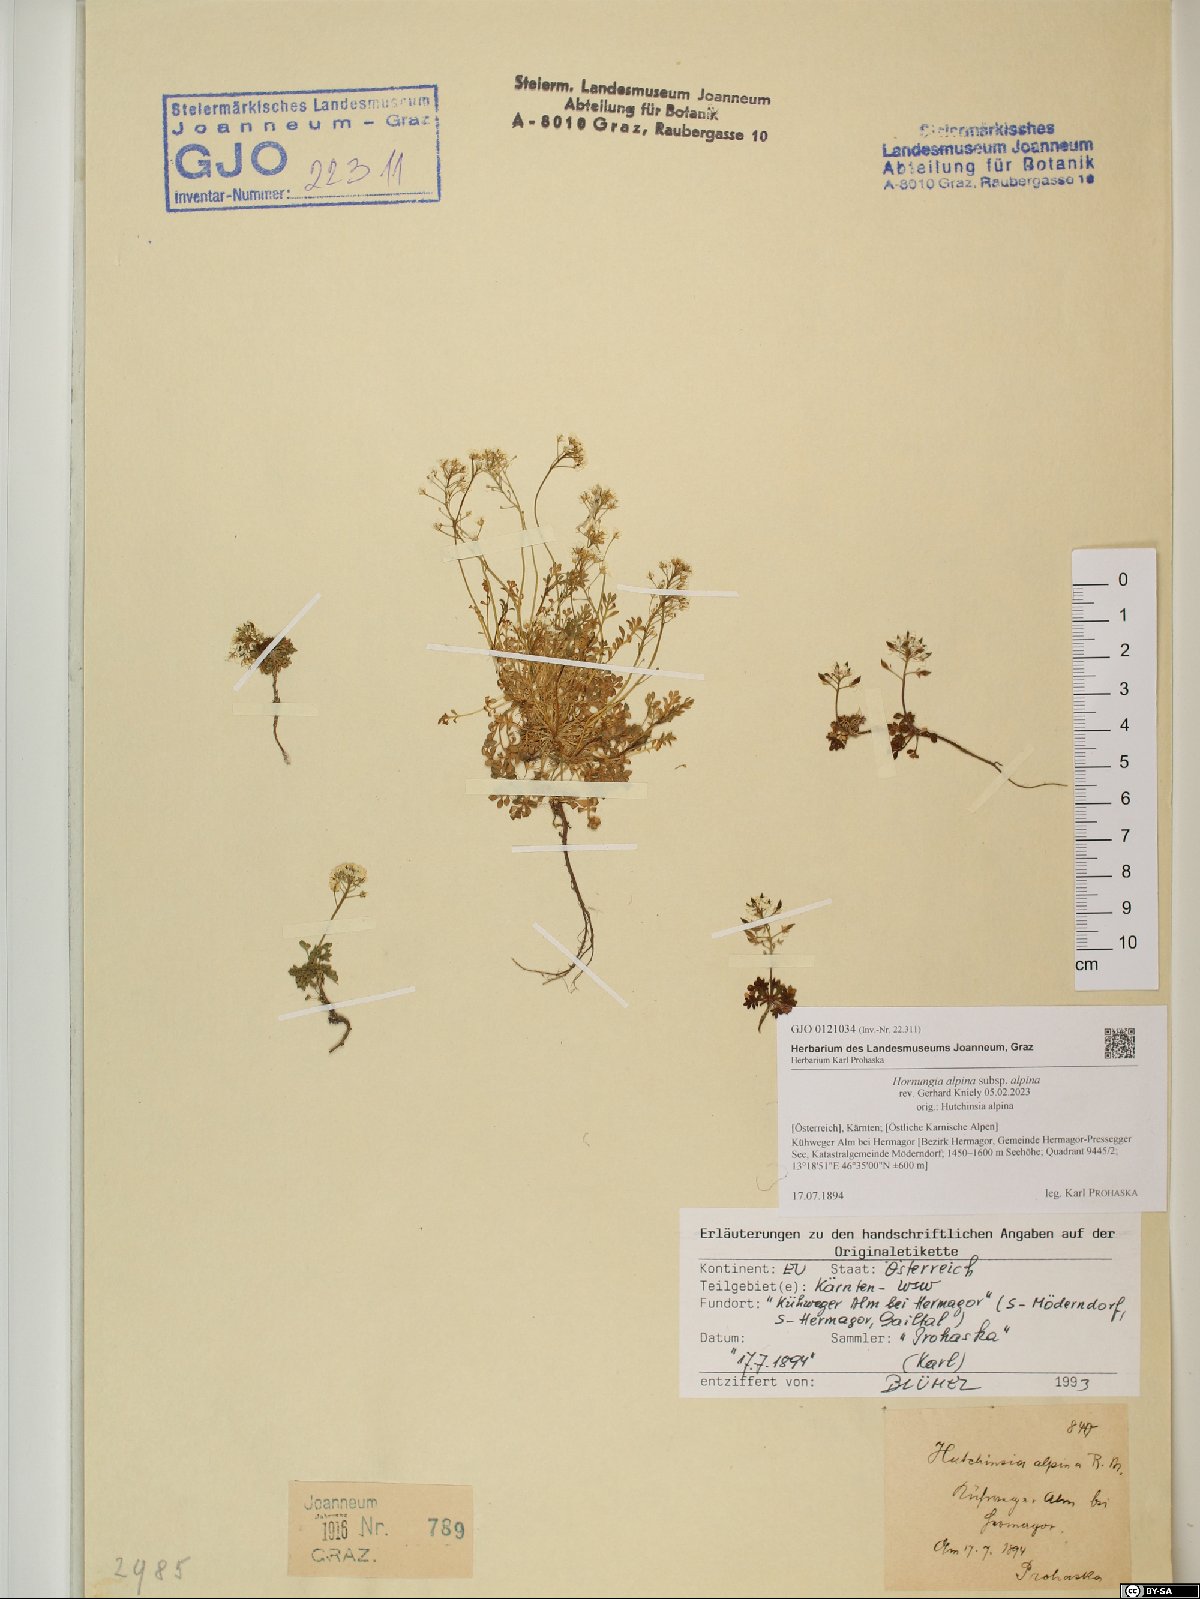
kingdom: Plantae
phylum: Tracheophyta
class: Magnoliopsida
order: Brassicales
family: Brassicaceae
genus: Hornungia
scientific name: Hornungia alpina
